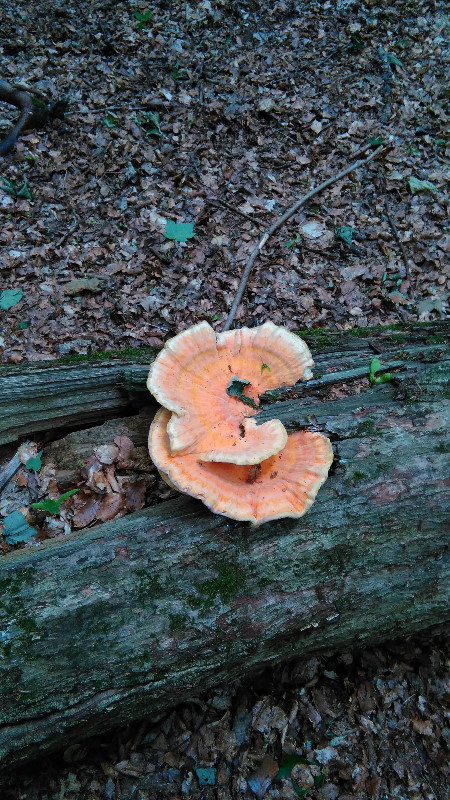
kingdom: Fungi
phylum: Basidiomycota
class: Agaricomycetes
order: Polyporales
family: Laetiporaceae
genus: Laetiporus
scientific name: Laetiporus sulphureus
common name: svovlporesvamp
